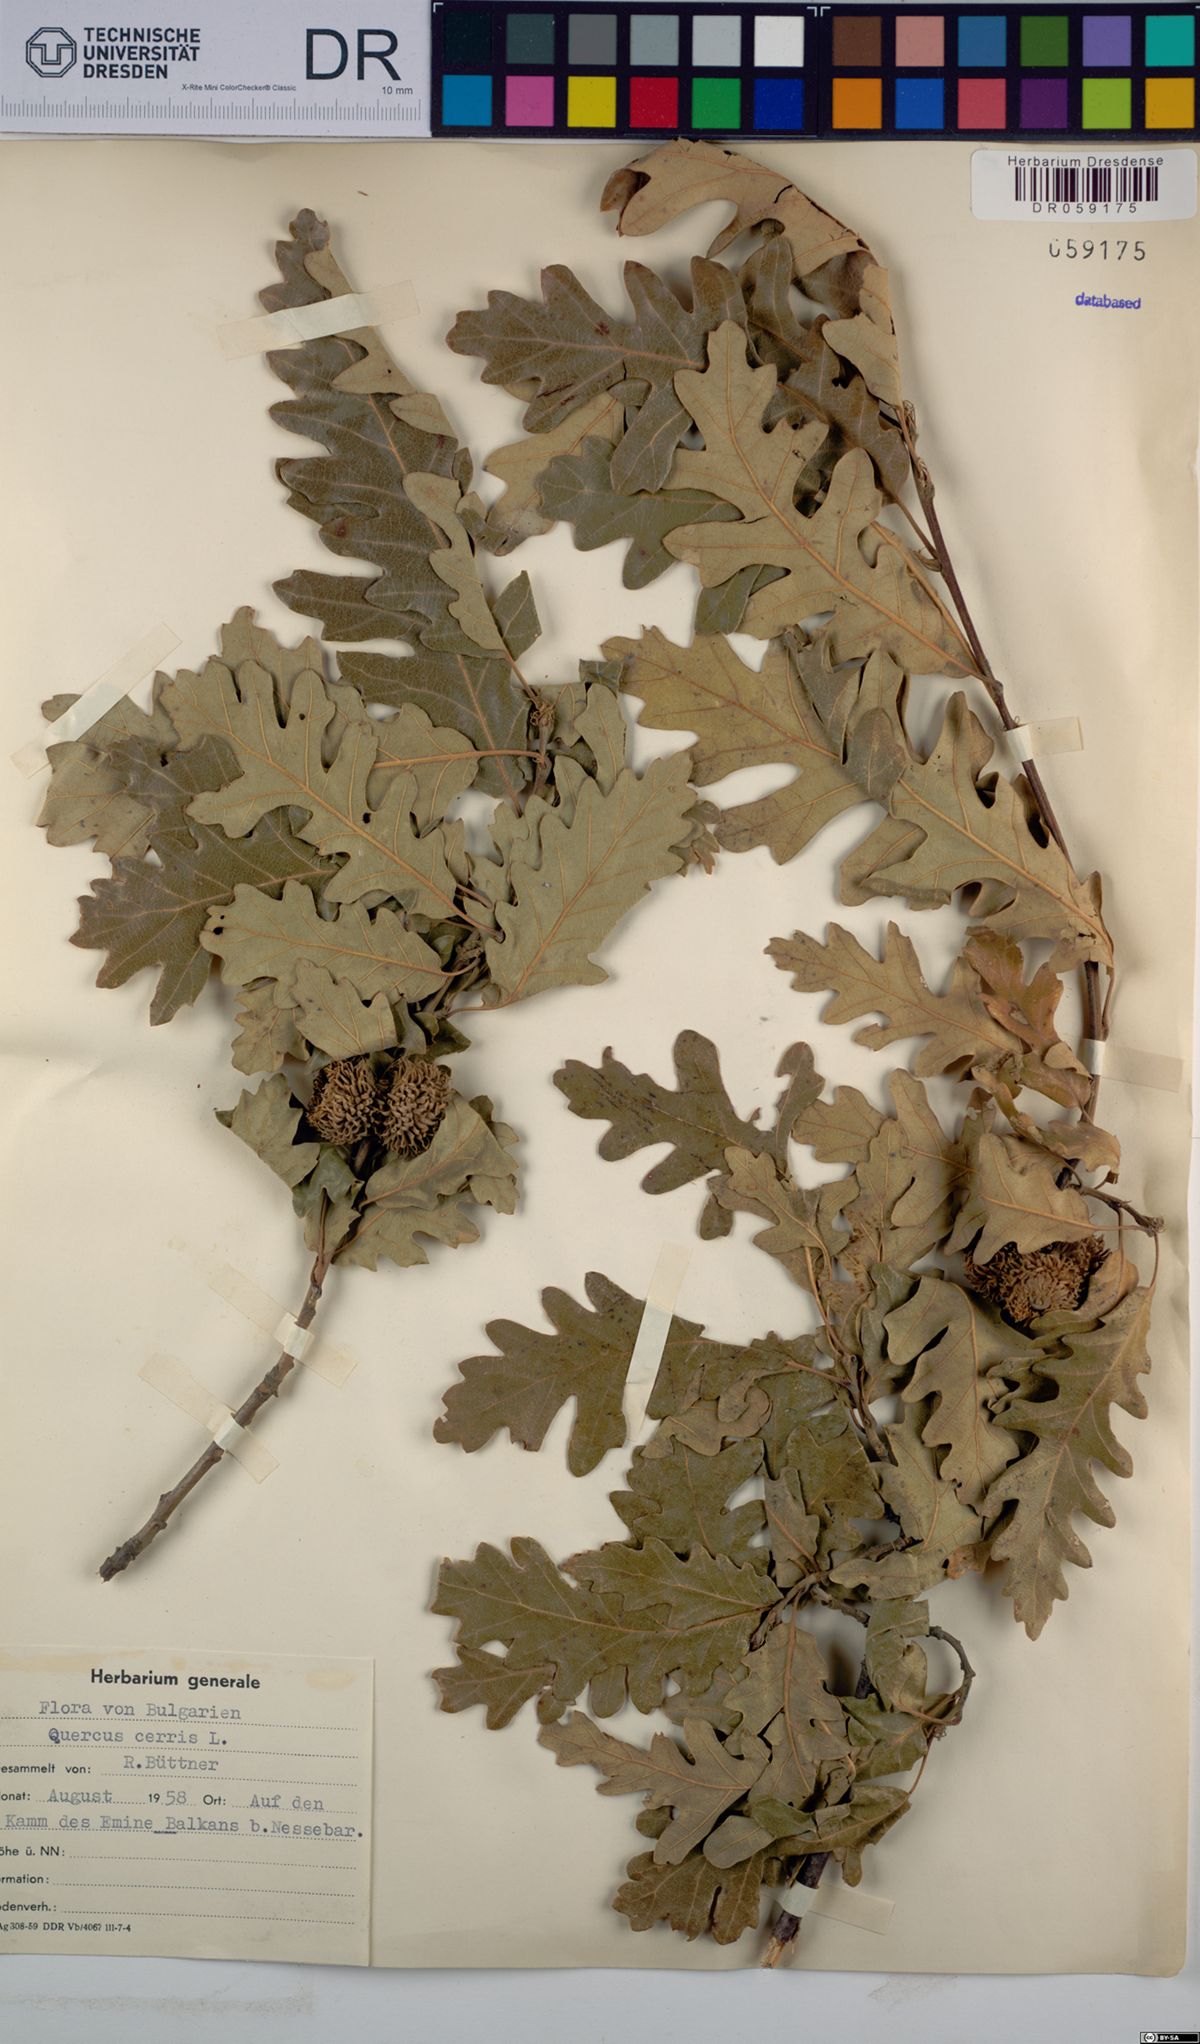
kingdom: Plantae
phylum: Tracheophyta
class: Magnoliopsida
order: Fagales
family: Fagaceae
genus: Quercus
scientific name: Quercus cerris
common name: Turkey oak
